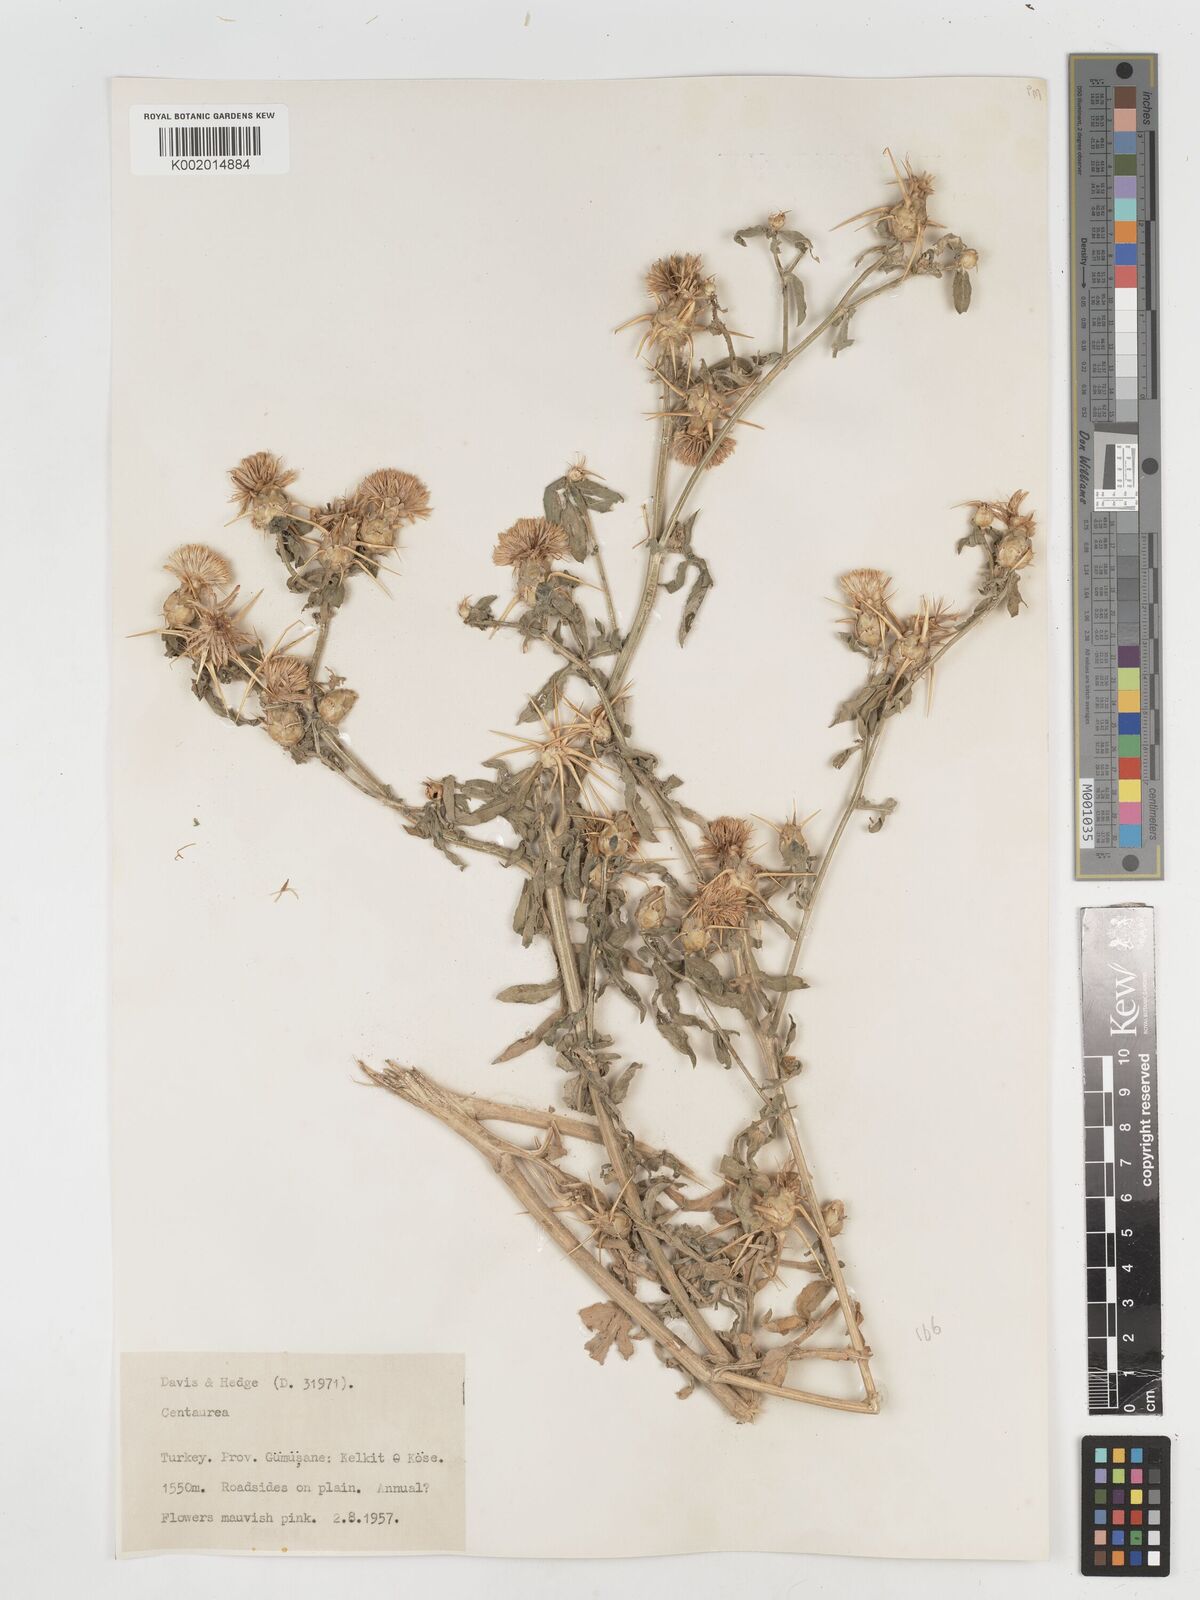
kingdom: Plantae
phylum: Tracheophyta
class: Magnoliopsida
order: Asterales
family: Asteraceae
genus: Centaurea
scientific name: Centaurea iberica
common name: Iberian knapweed
